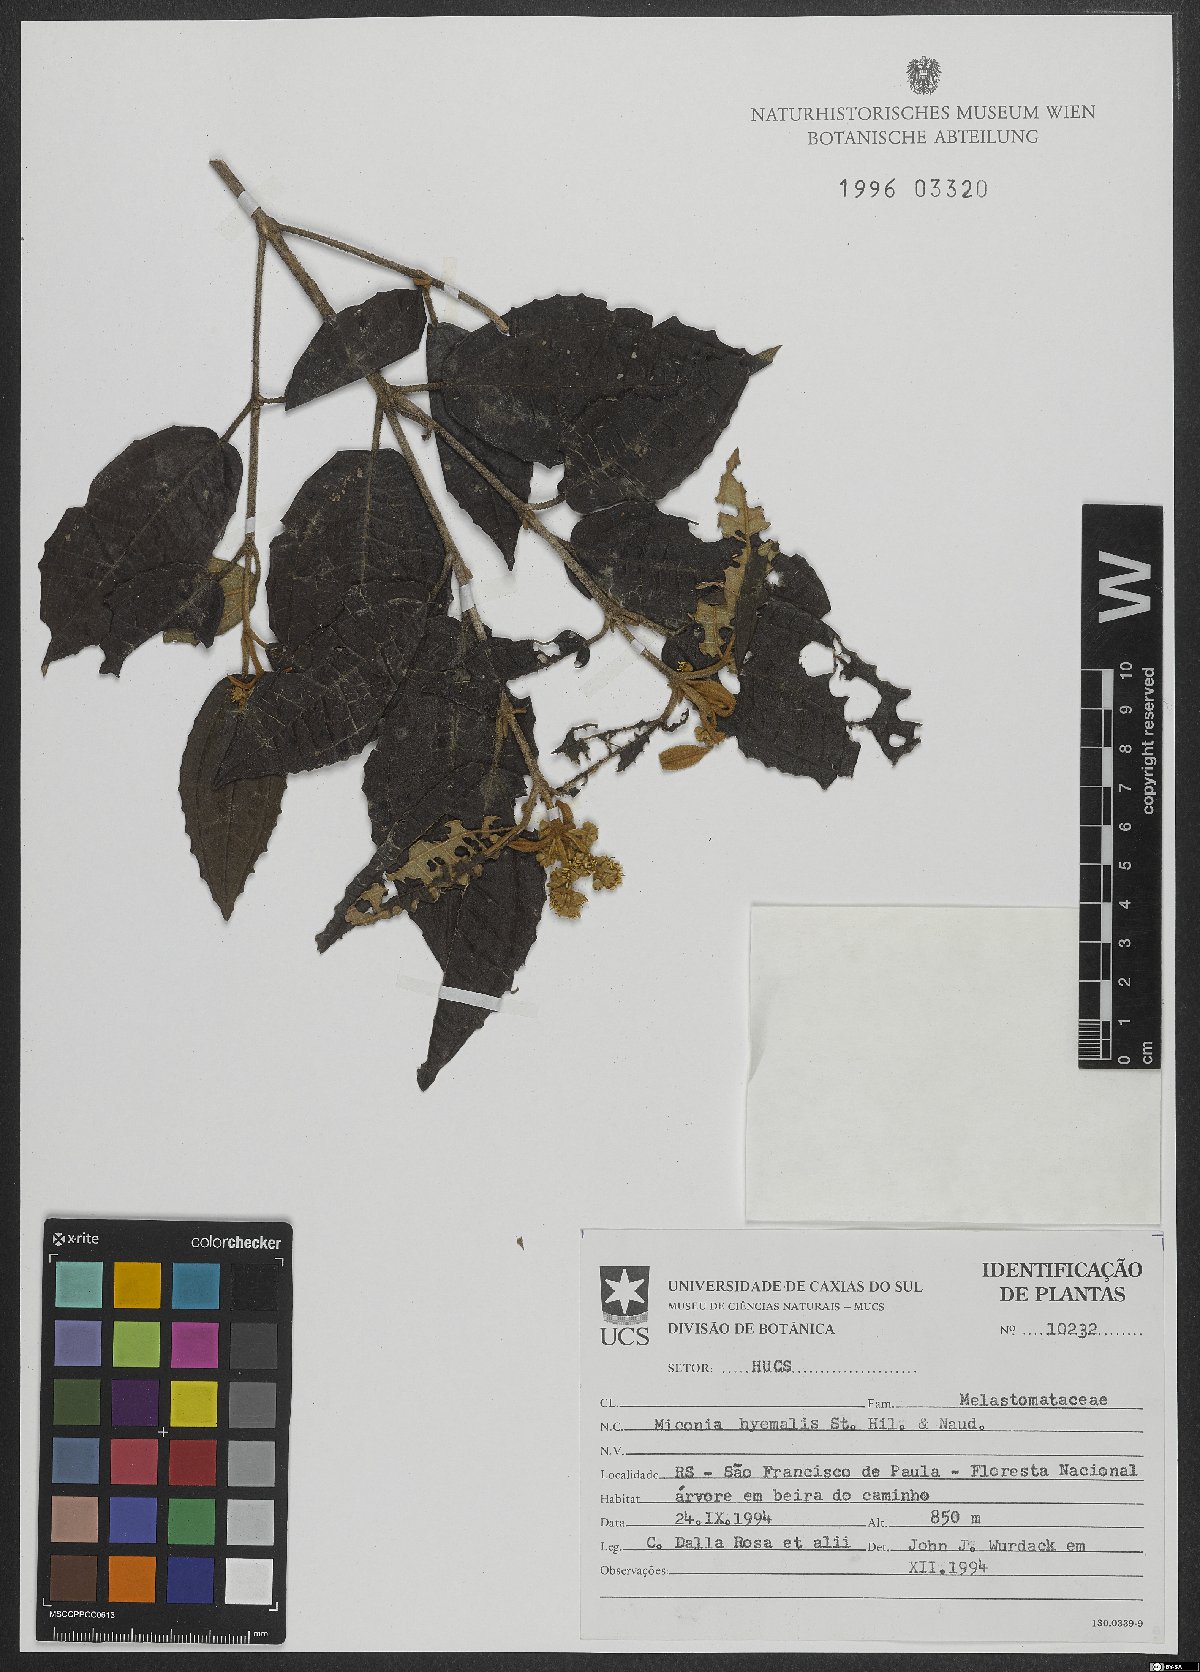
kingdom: Plantae
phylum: Tracheophyta
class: Magnoliopsida
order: Myrtales
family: Melastomataceae
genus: Miconia
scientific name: Miconia hyemalis
